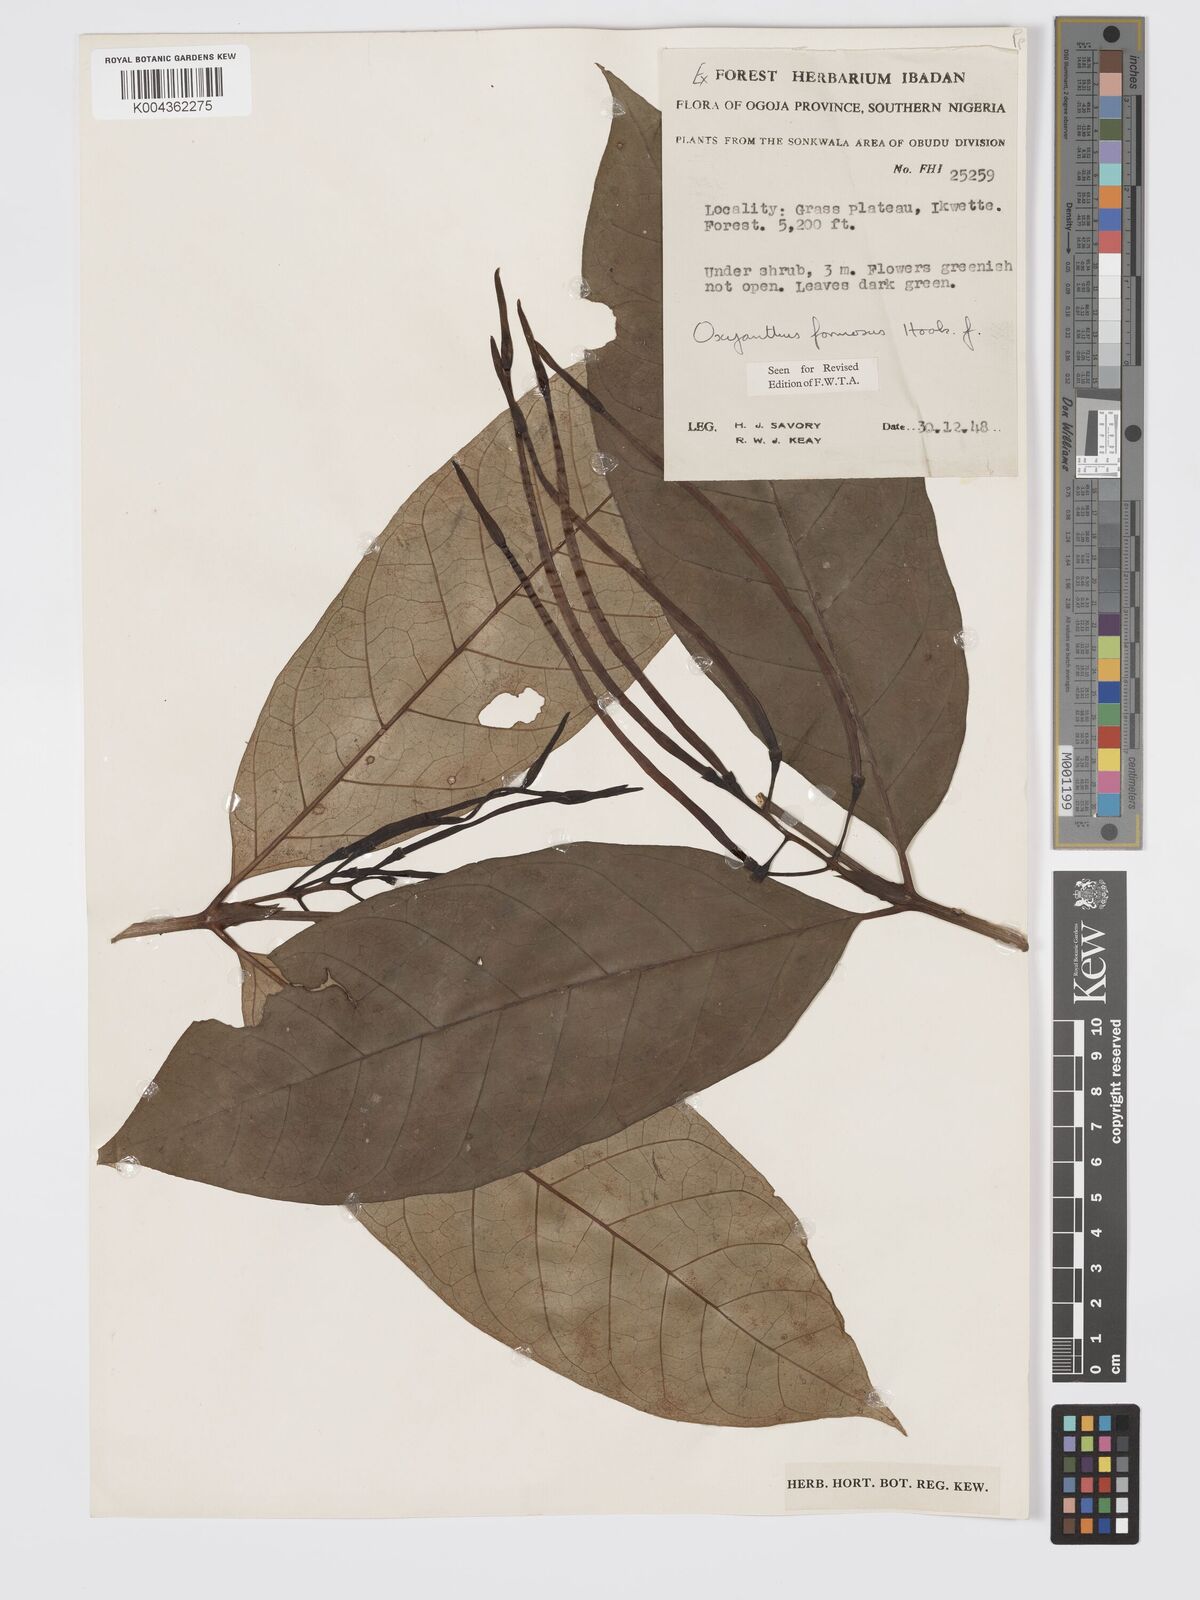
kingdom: Plantae
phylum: Tracheophyta
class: Magnoliopsida
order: Gentianales
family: Rubiaceae
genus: Oxyanthus
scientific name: Oxyanthus formosus
